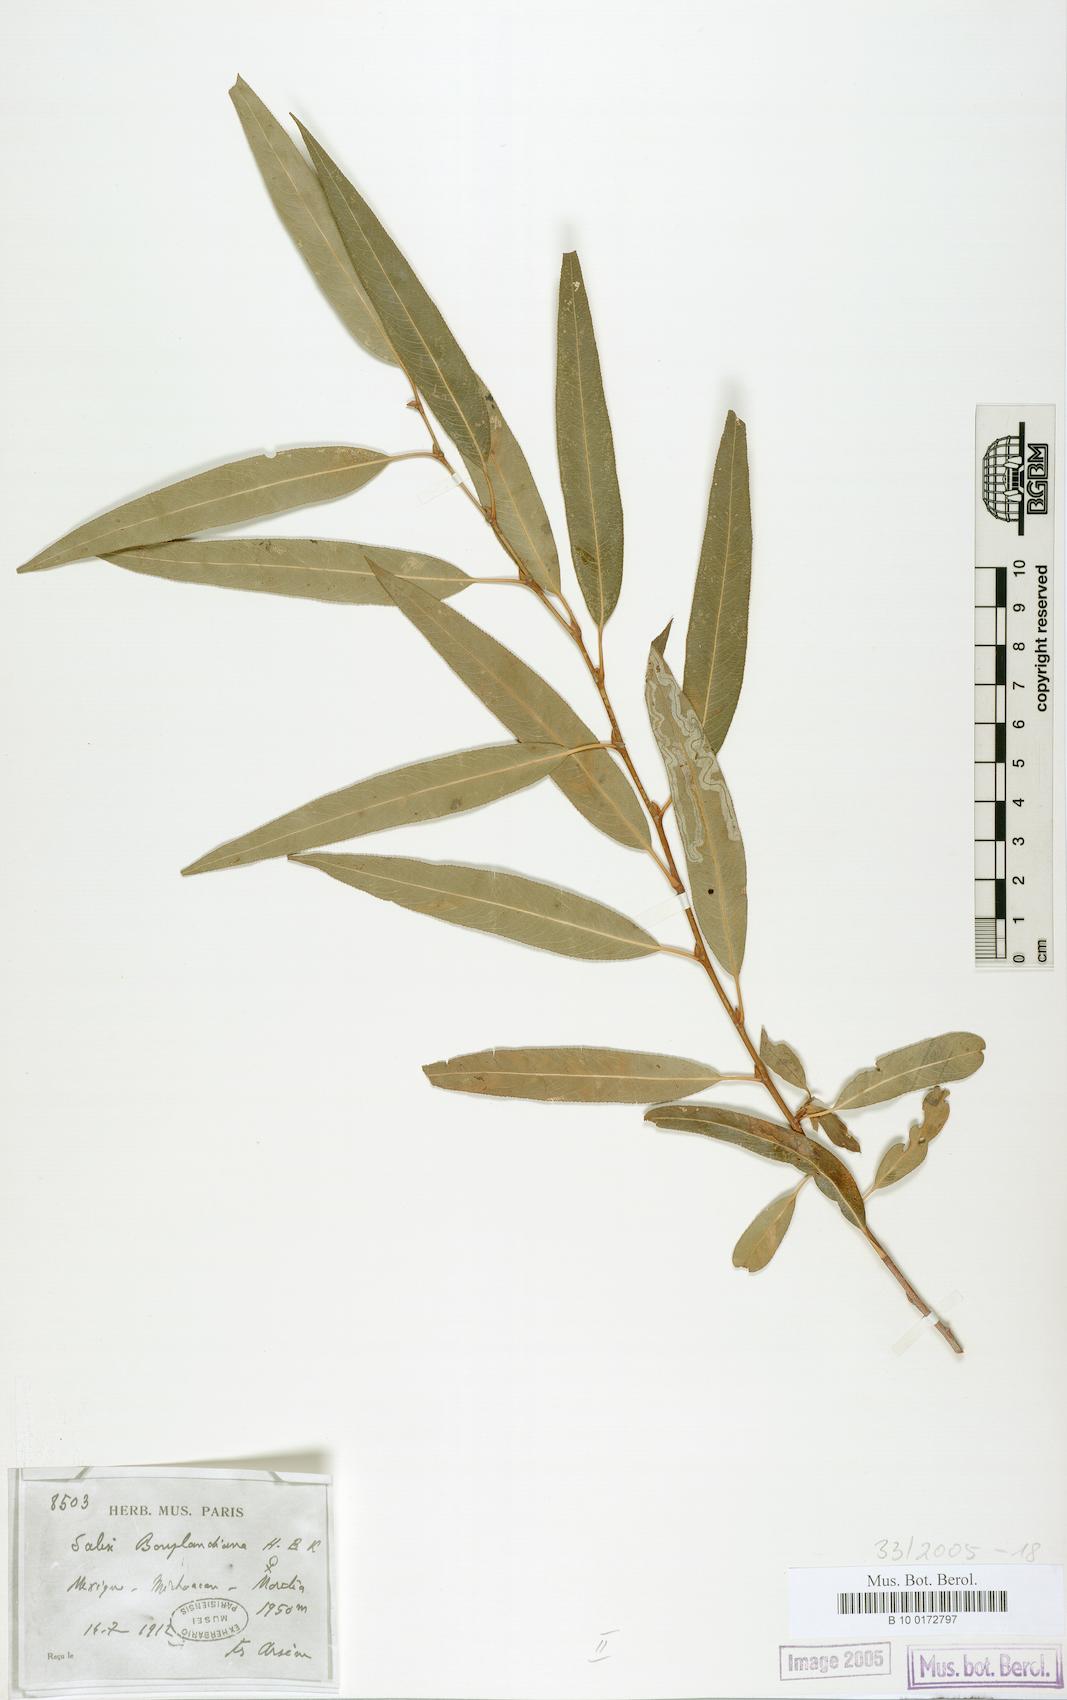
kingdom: Plantae
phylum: Tracheophyta
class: Magnoliopsida
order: Malpighiales
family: Salicaceae
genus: Salix
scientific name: Salix bonplandiana
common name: Bonpland’s willow
